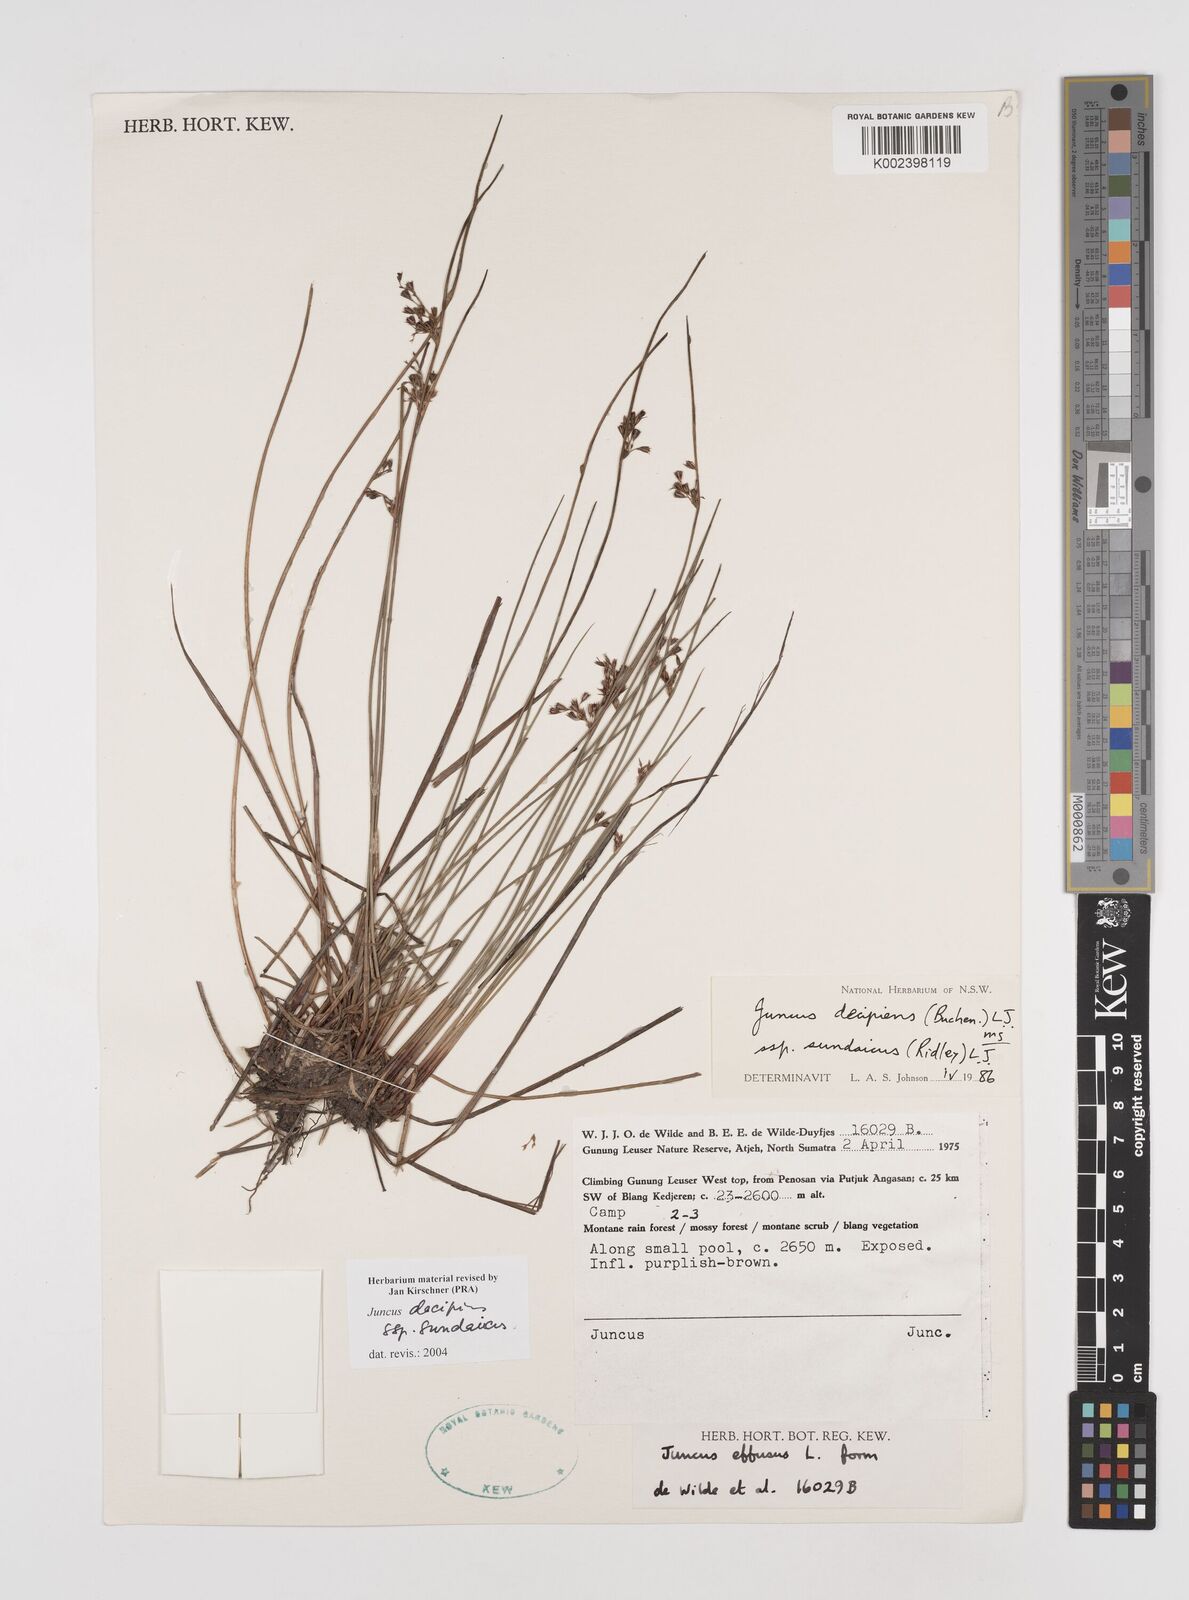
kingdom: Plantae
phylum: Tracheophyta
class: Liliopsida
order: Poales
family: Juncaceae
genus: Juncus
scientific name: Juncus decipiens
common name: Lamp rush
